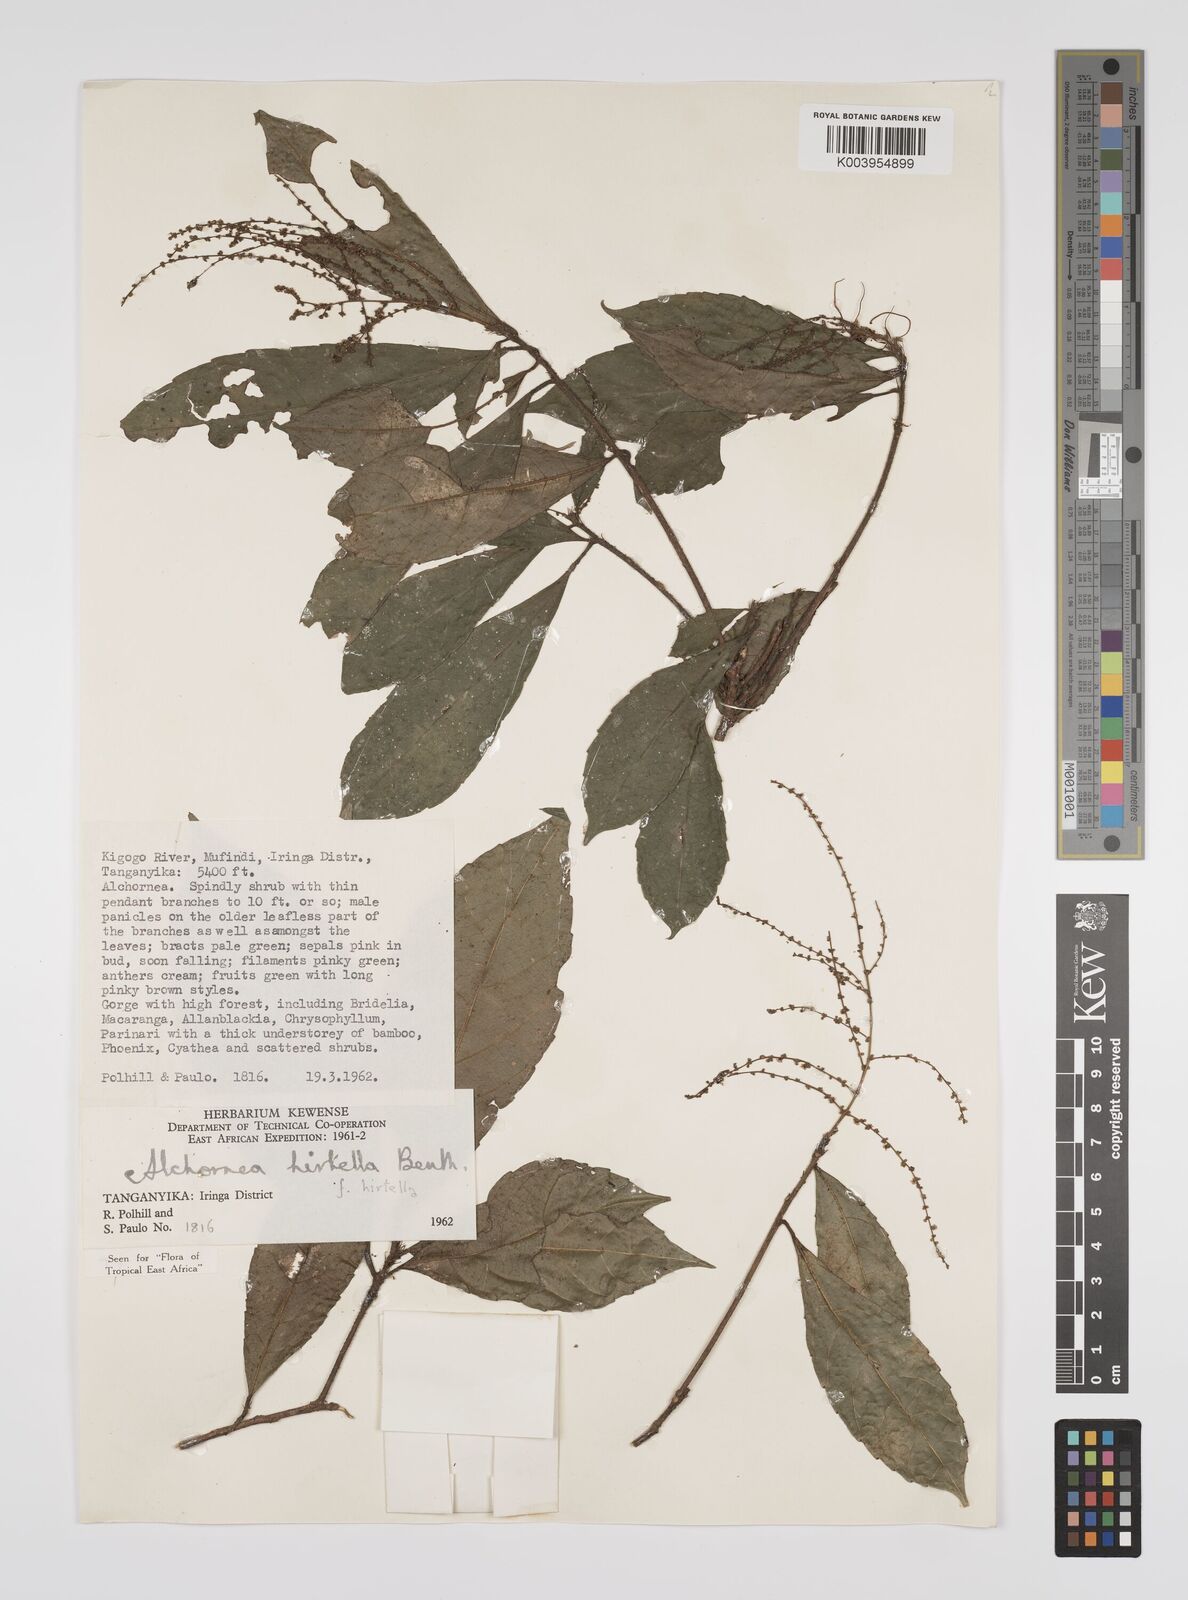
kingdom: Plantae
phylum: Tracheophyta
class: Magnoliopsida
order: Malpighiales
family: Euphorbiaceae
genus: Alchornea
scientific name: Alchornea hirtella
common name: Forest bead-string
